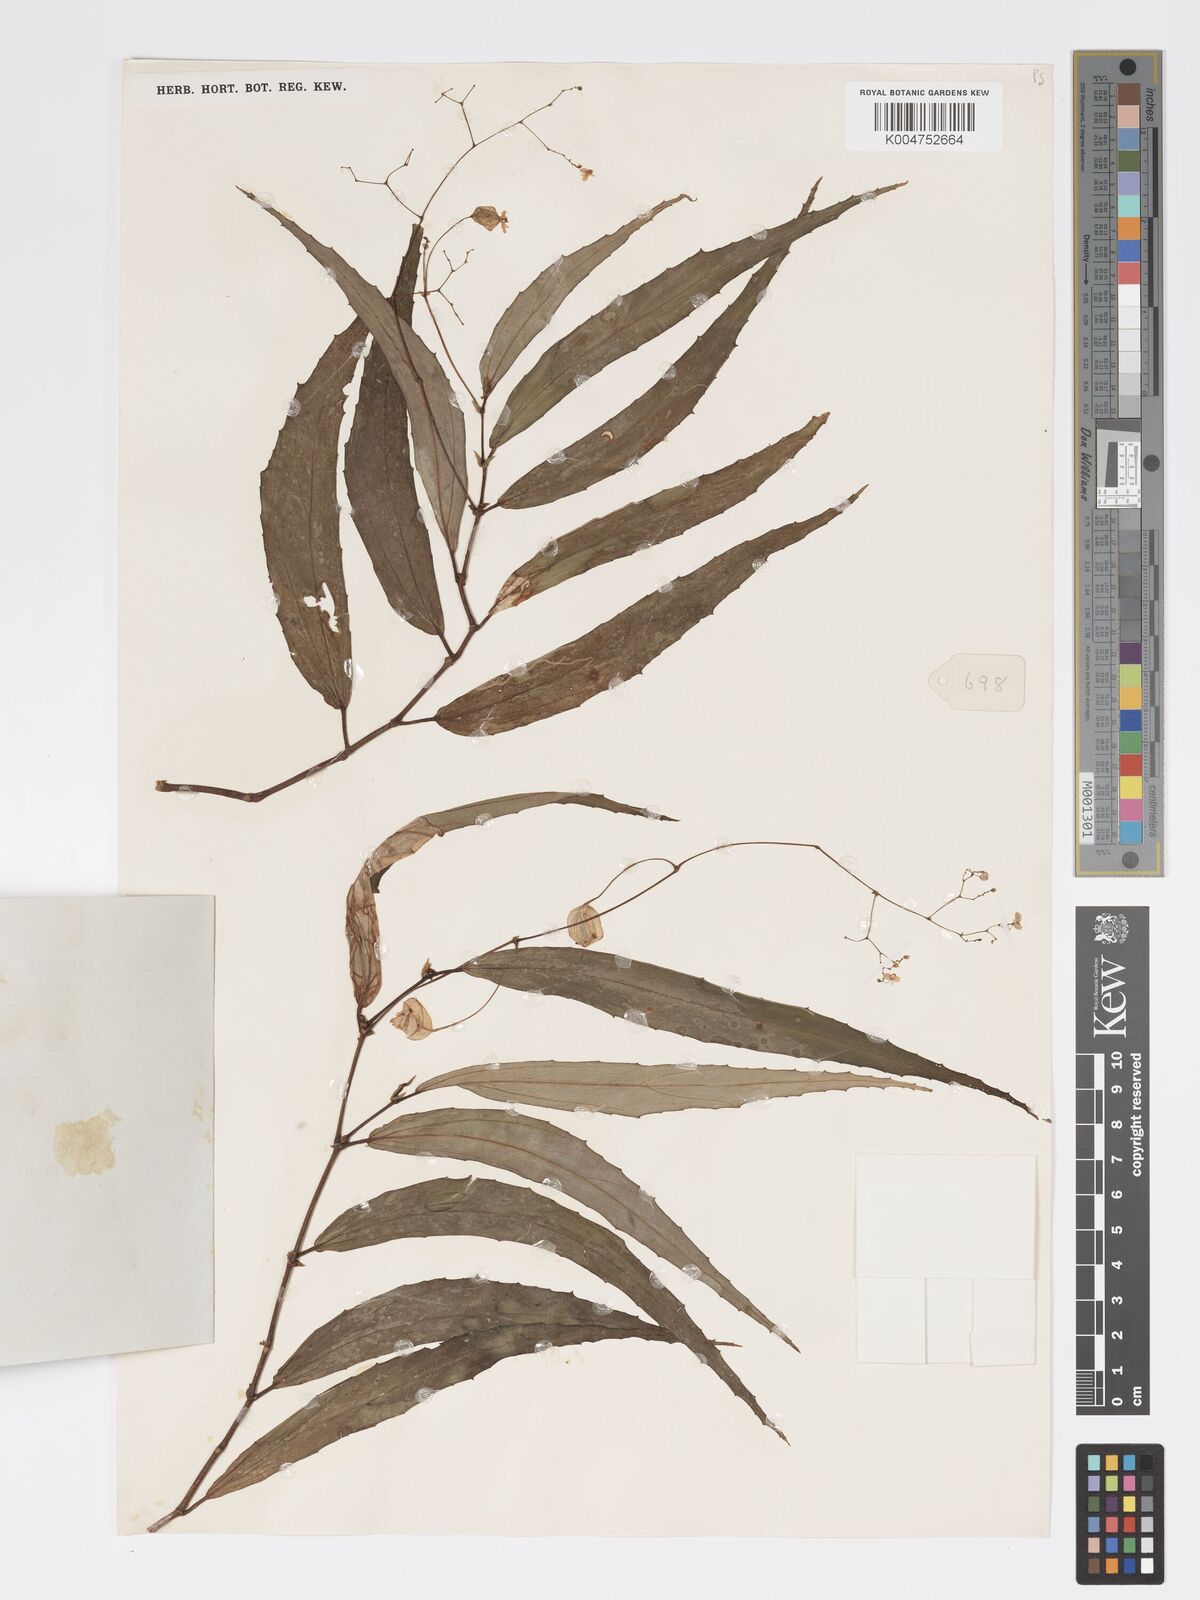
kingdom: Plantae
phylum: Tracheophyta
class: Magnoliopsida
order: Cucurbitales
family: Begoniaceae
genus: Begonia
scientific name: Begonia xiphophylla
